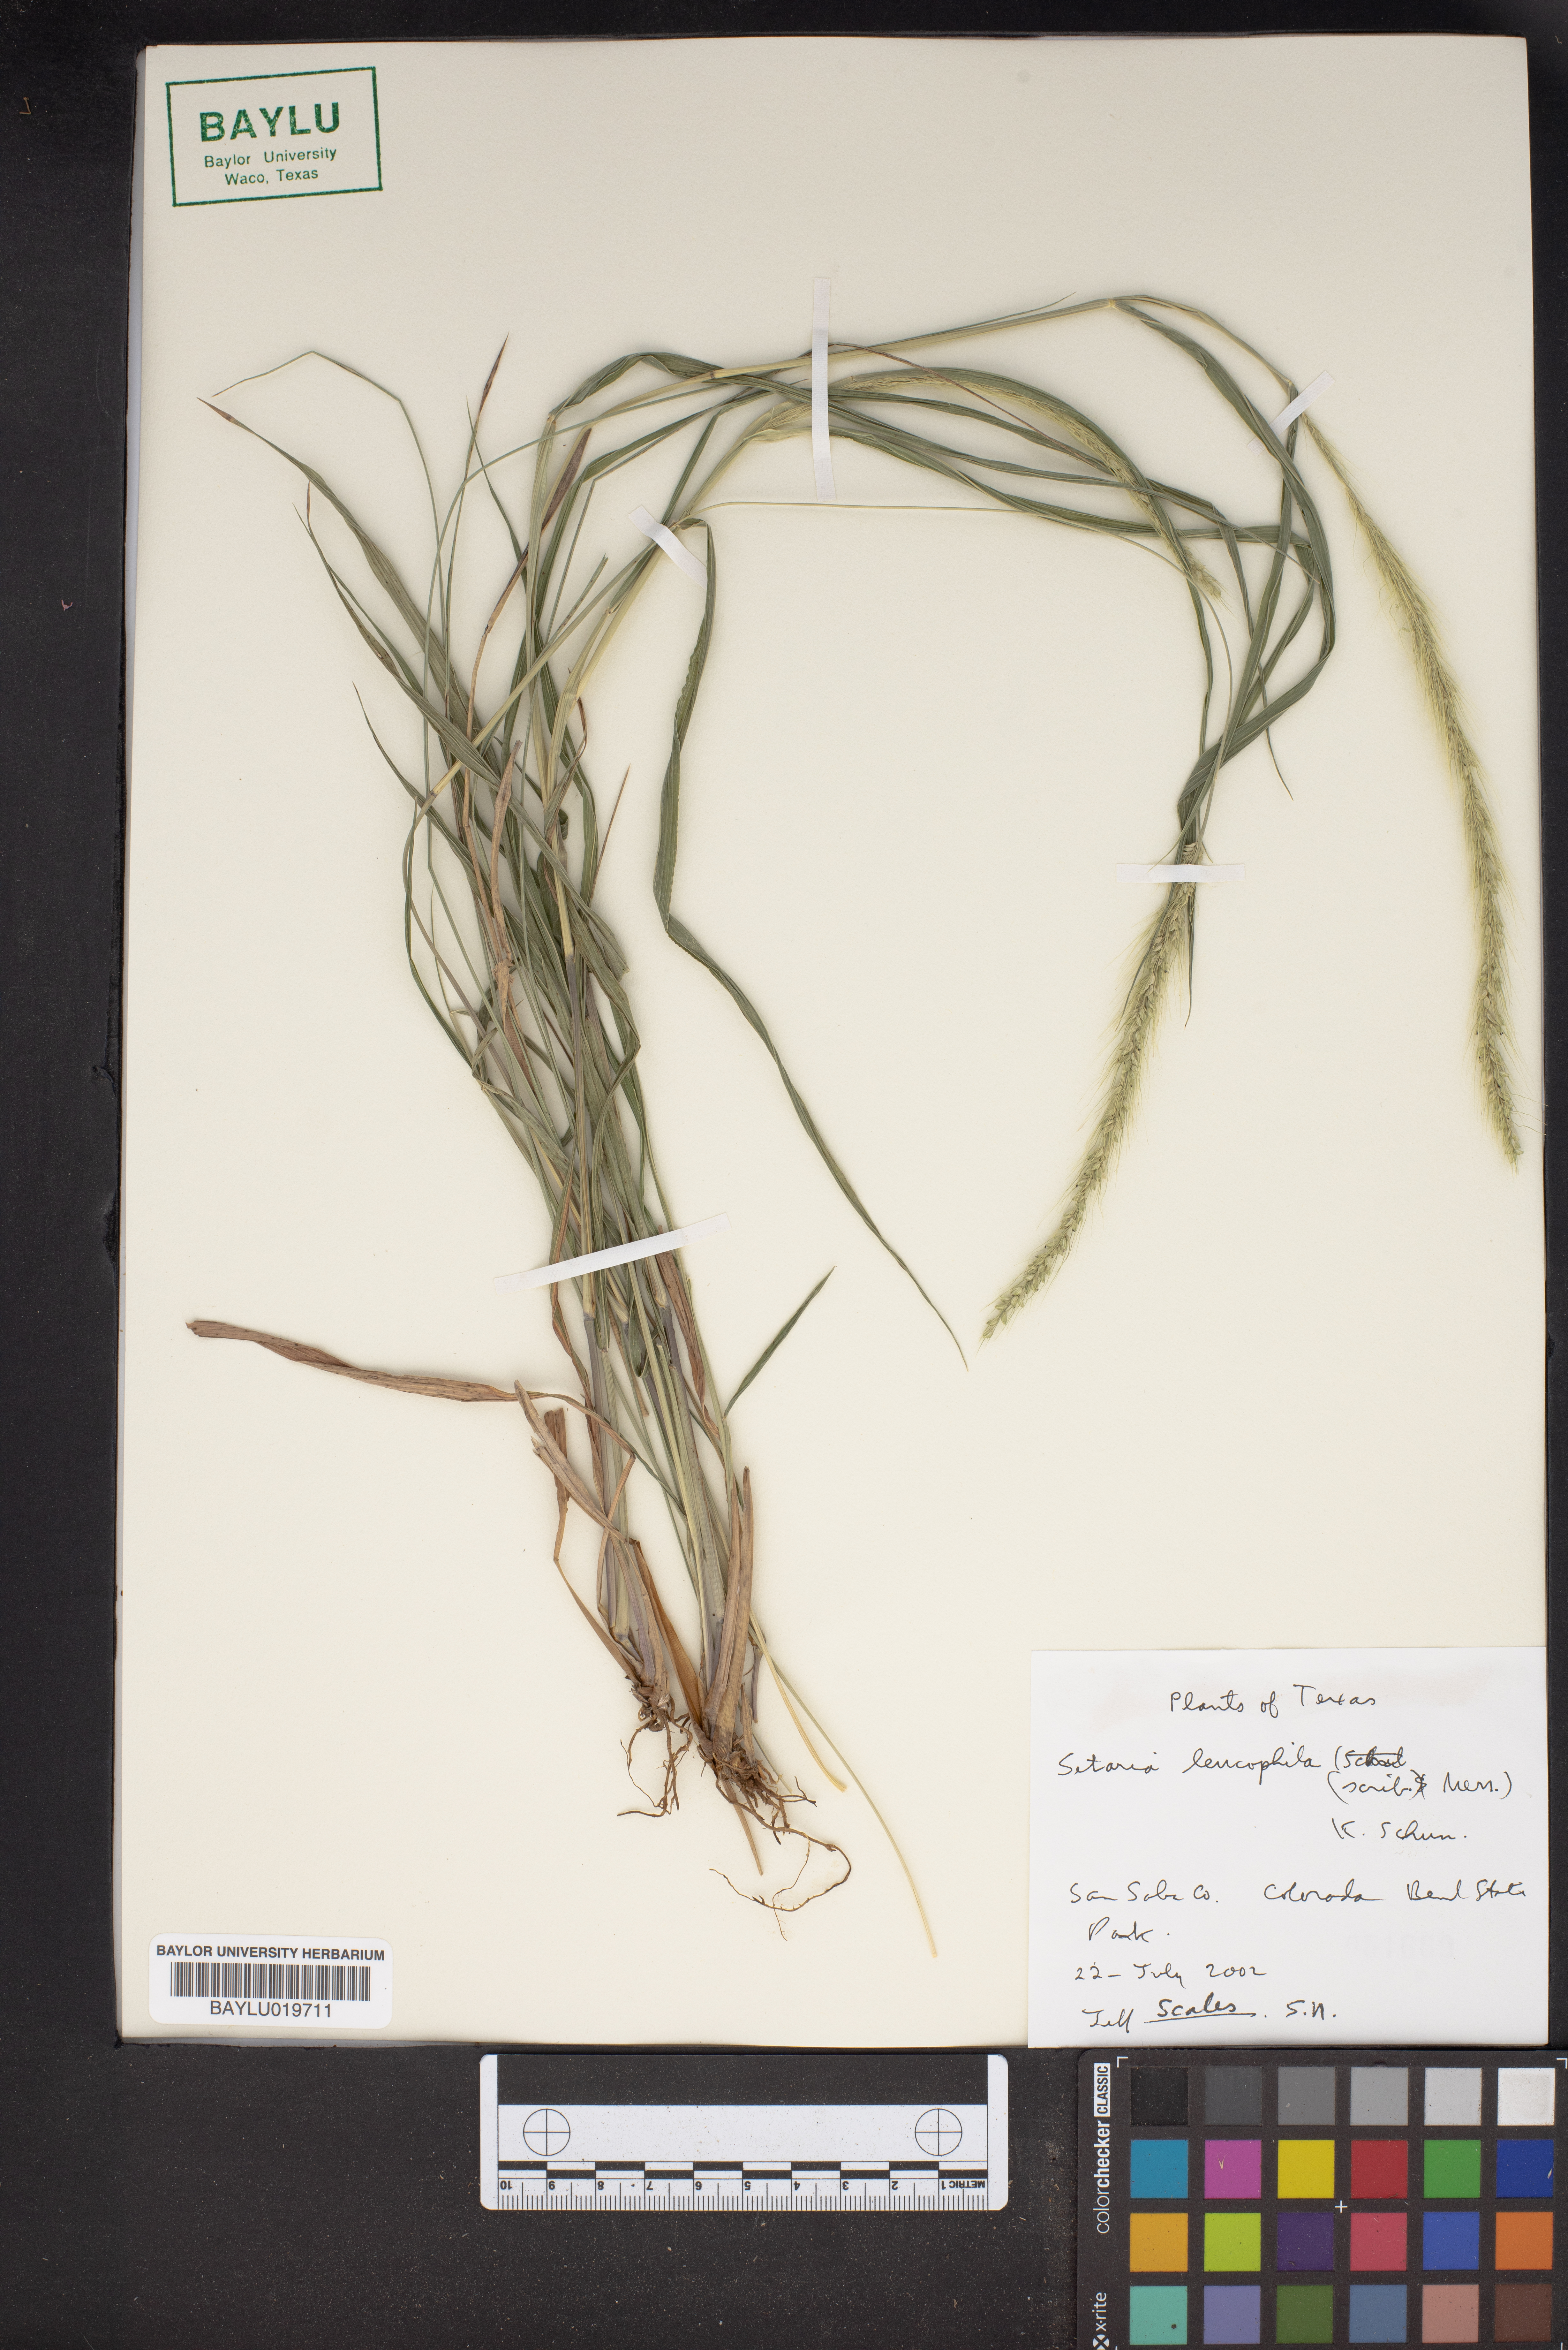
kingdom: Plantae
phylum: Tracheophyta
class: Liliopsida
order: Poales
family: Poaceae
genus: Setaria
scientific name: Setaria leucopila
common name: Plains bristle grass
